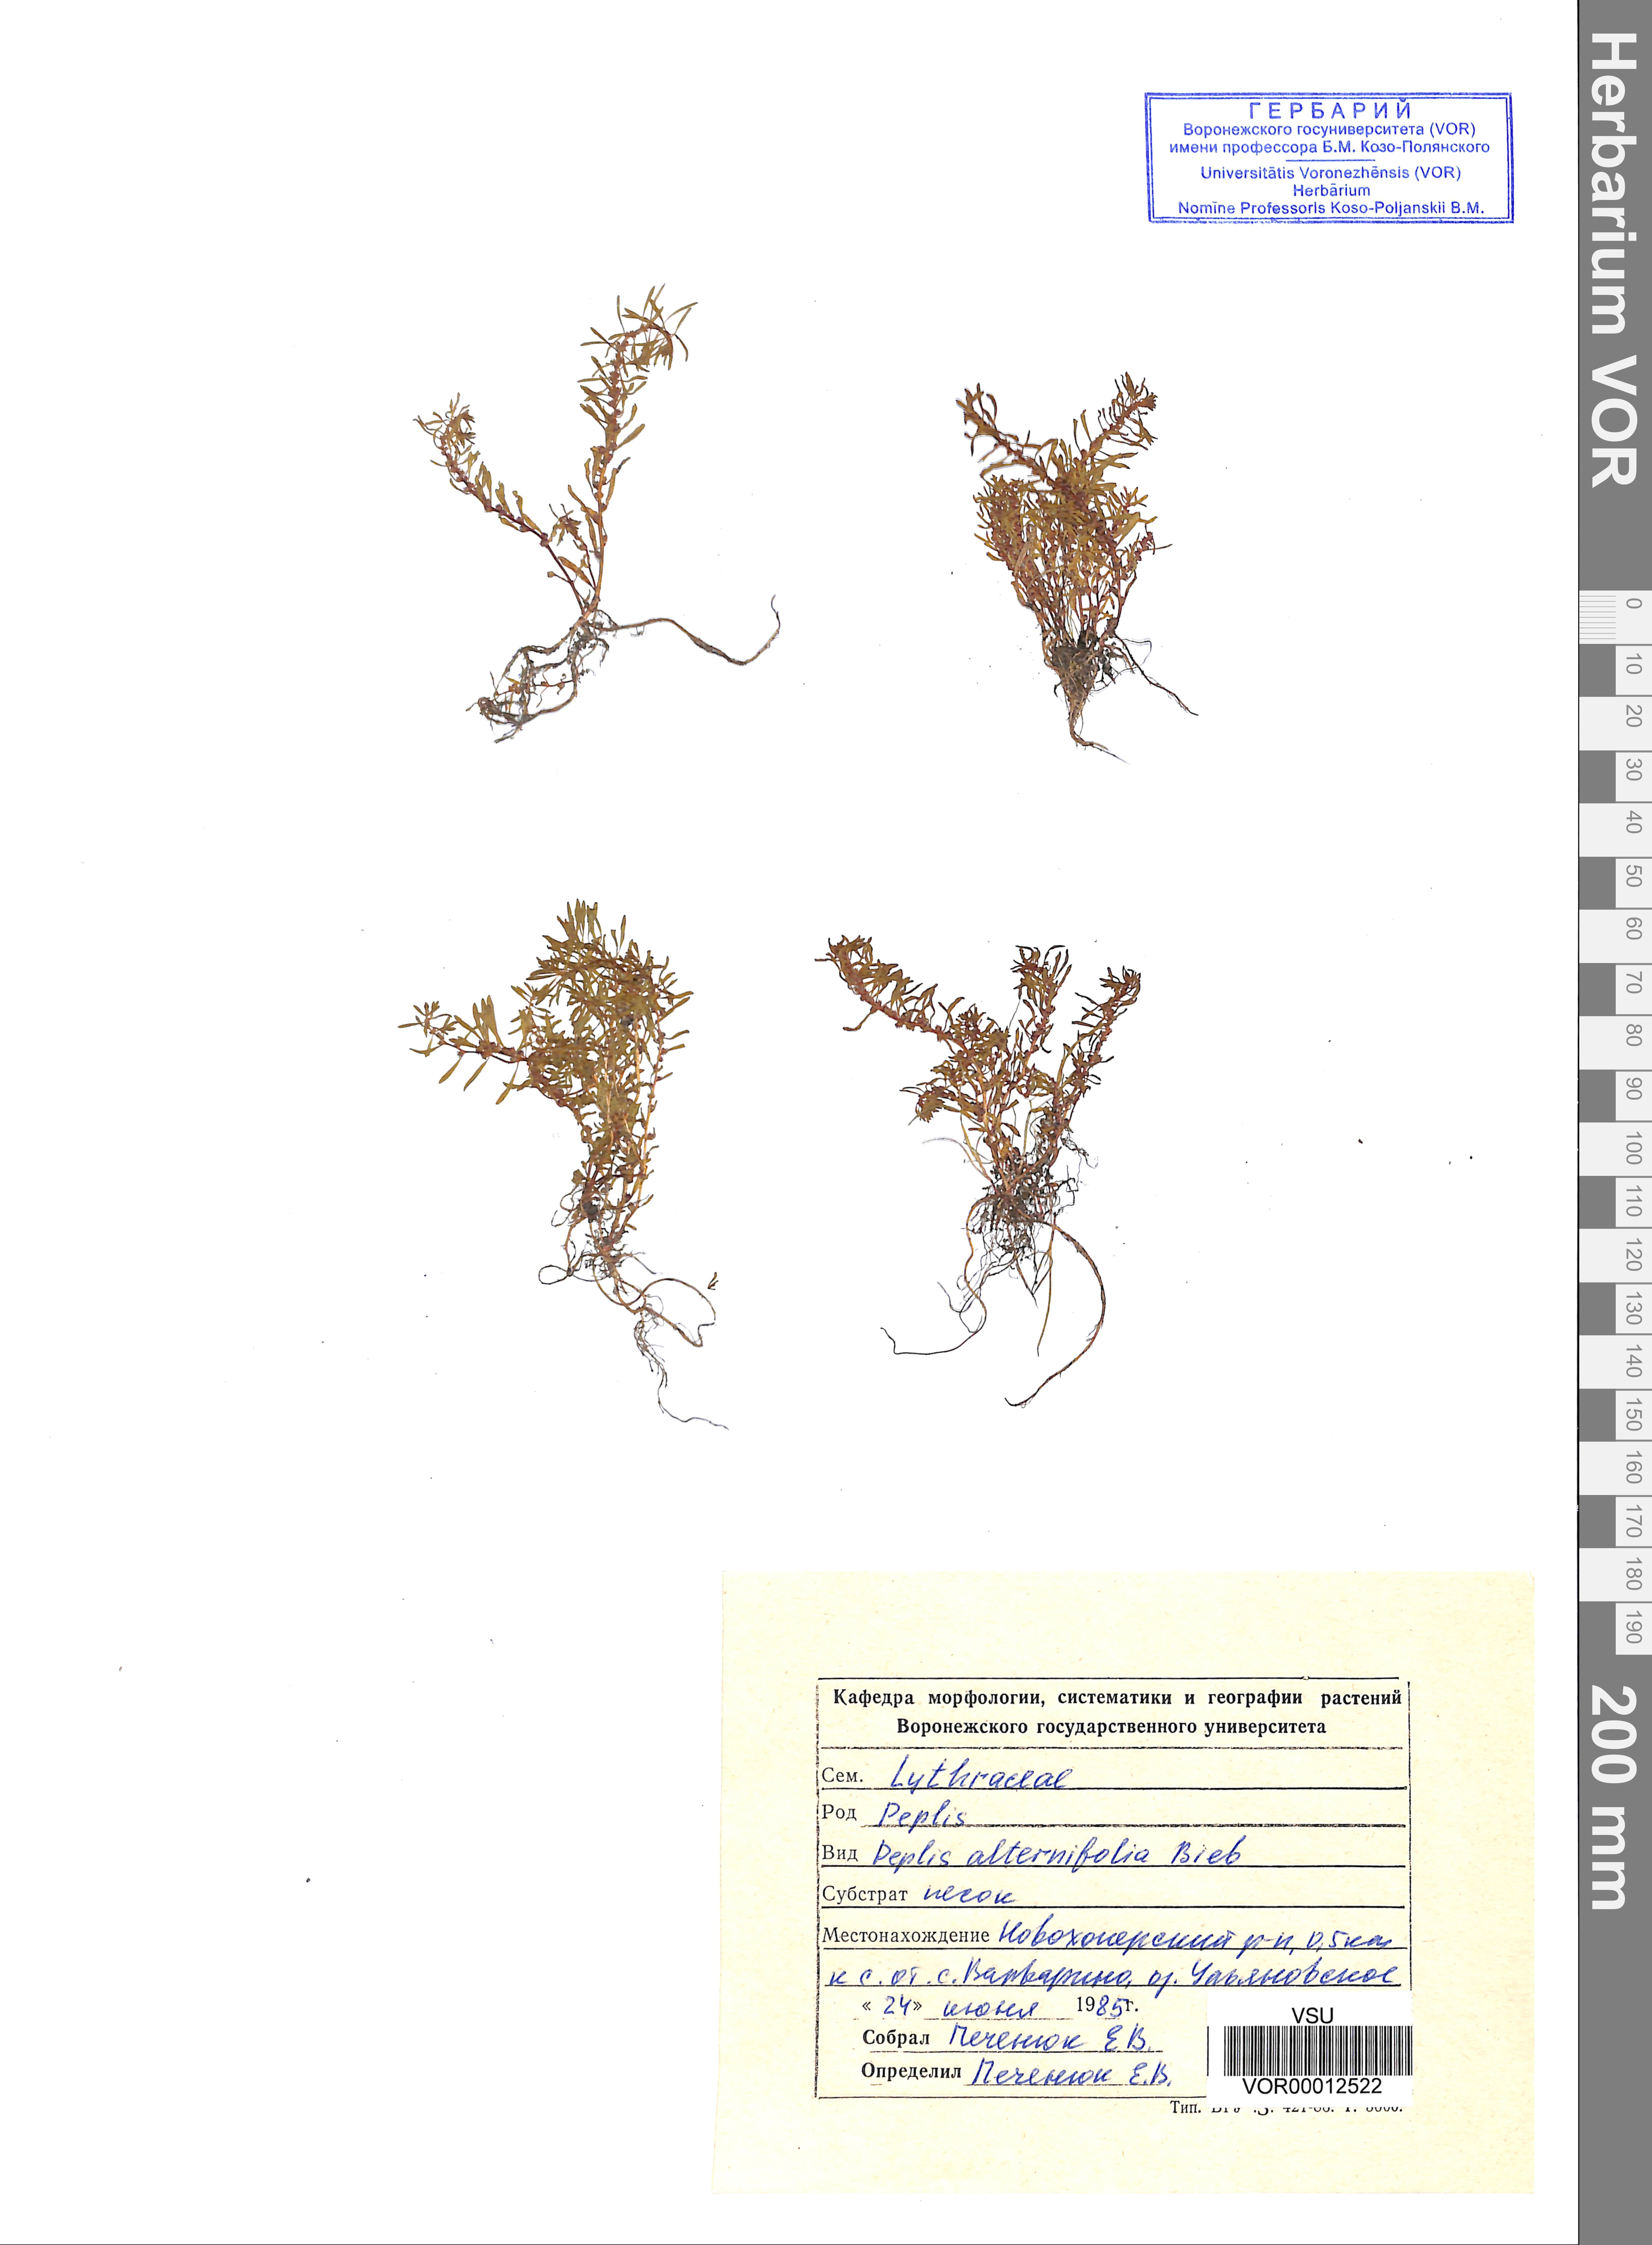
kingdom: Plantae
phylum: Tracheophyta
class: Magnoliopsida
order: Myrtales
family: Lythraceae
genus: Lythrum
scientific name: Lythrum portula
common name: Water purslane
